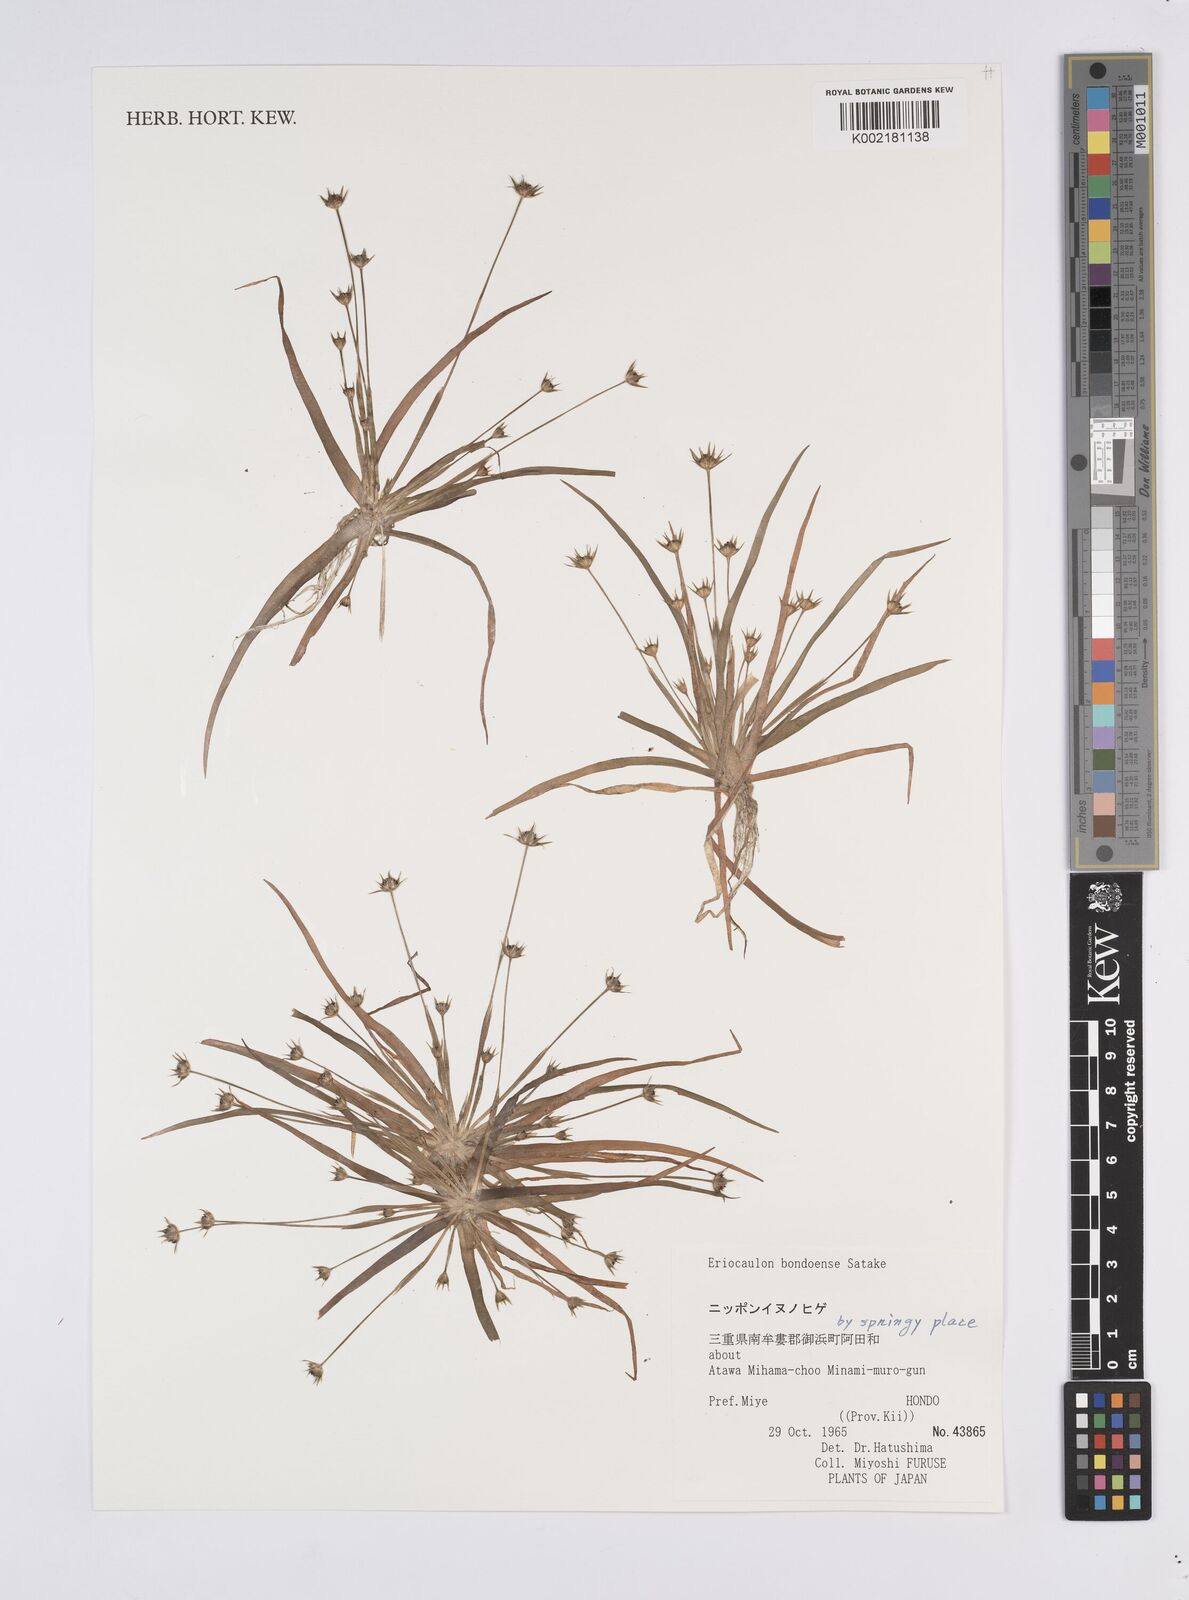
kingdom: Plantae
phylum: Tracheophyta
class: Liliopsida
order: Poales
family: Eriocaulaceae
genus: Eriocaulon
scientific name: Eriocaulon taquetii
